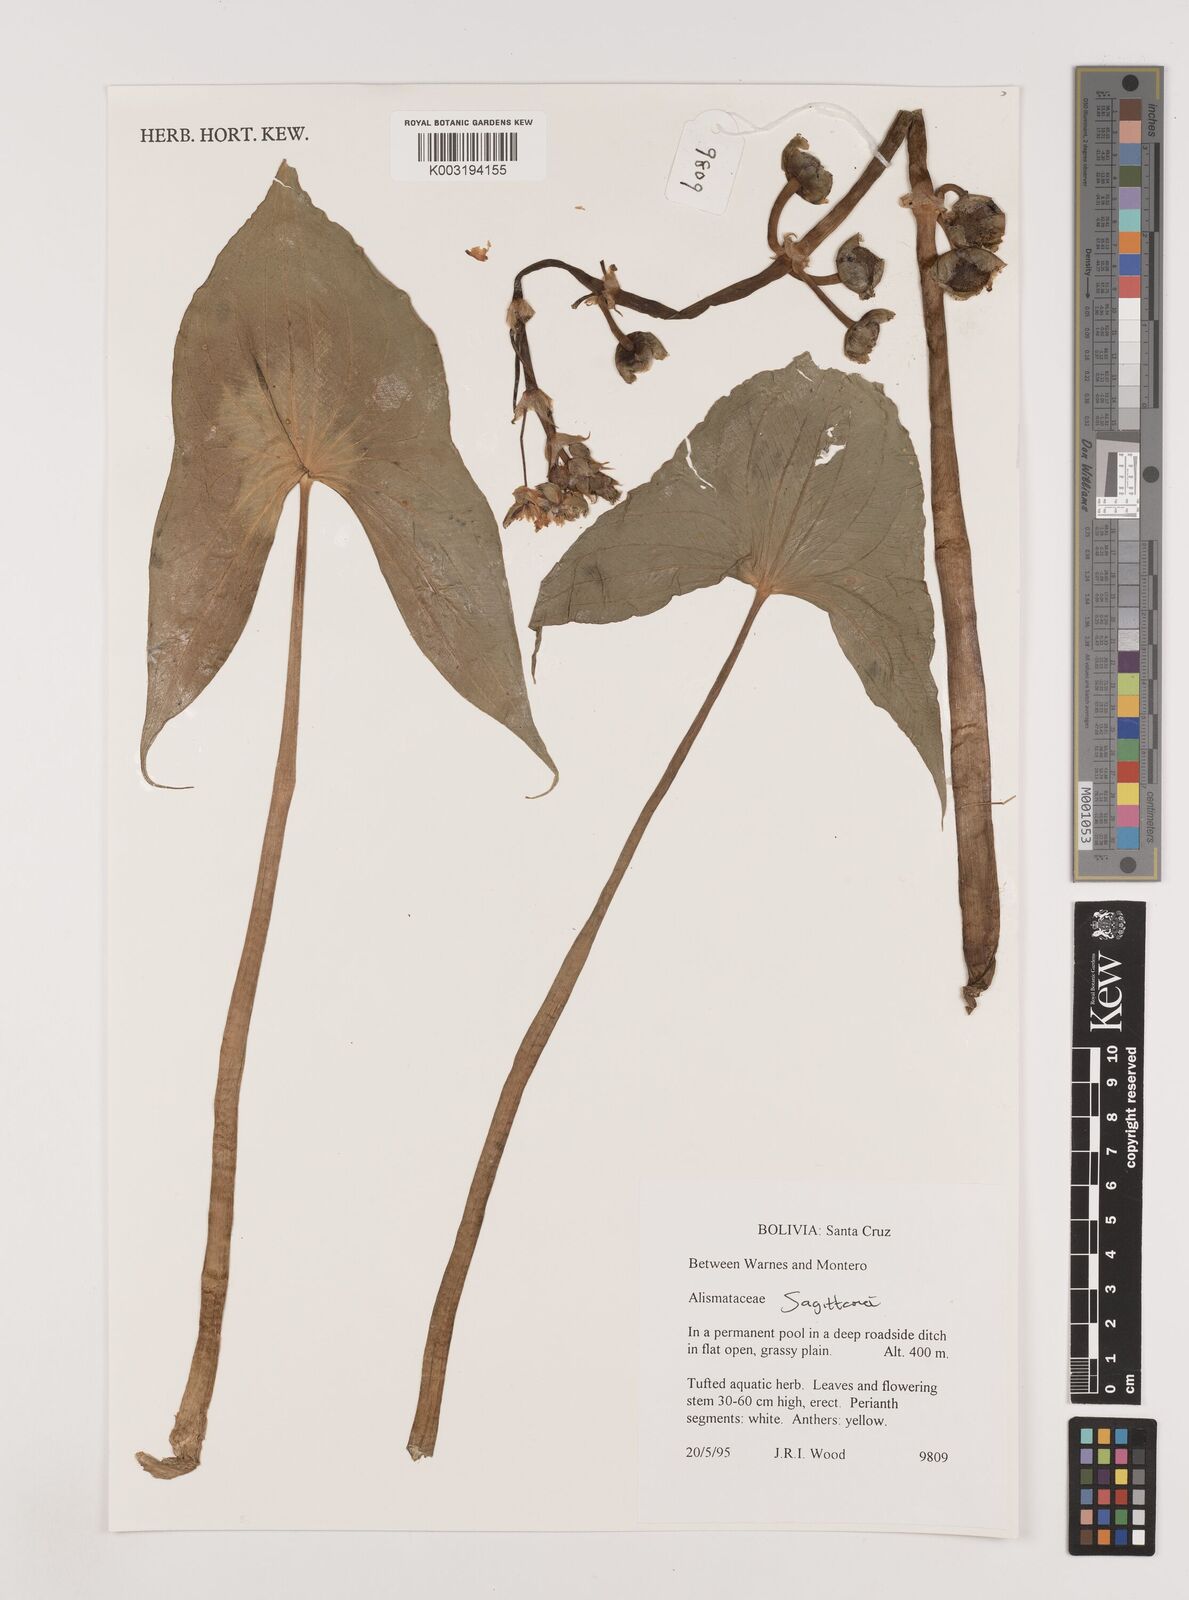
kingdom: Plantae
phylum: Tracheophyta
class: Liliopsida
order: Alismatales
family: Alismataceae
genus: Sagittaria
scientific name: Sagittaria
